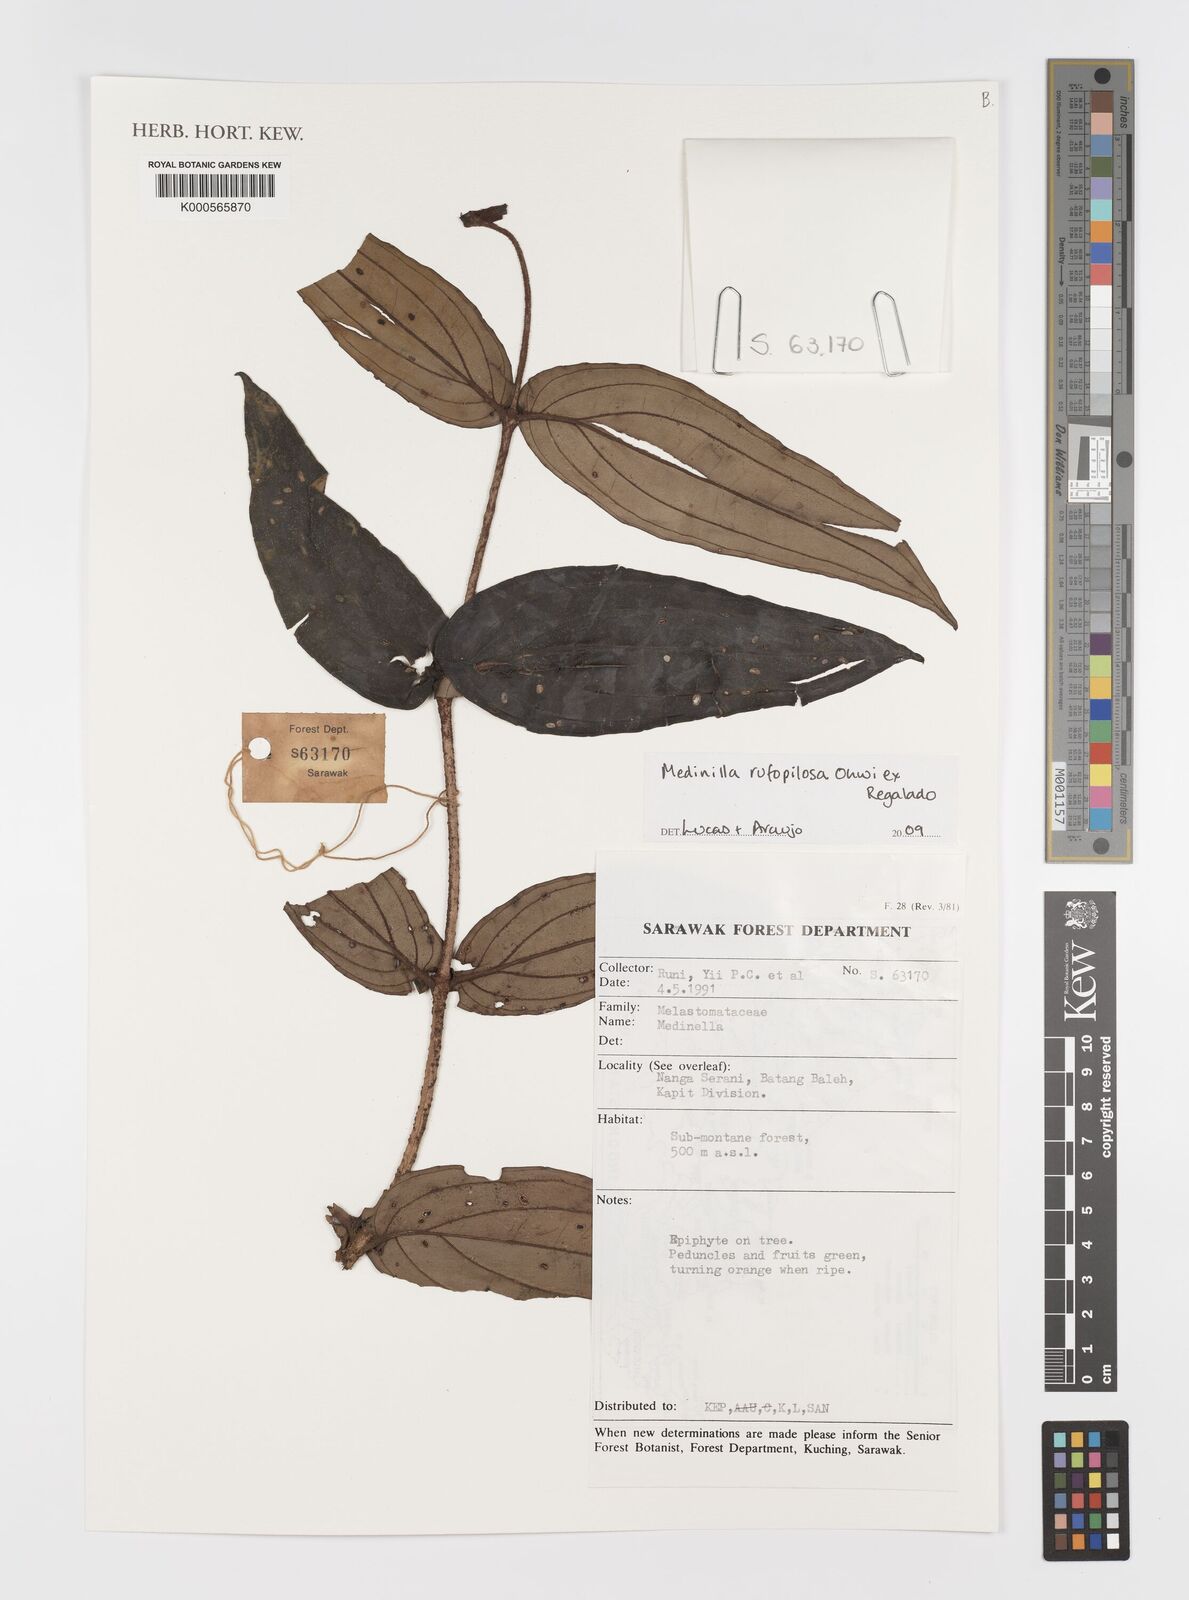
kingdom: Plantae
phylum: Tracheophyta
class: Magnoliopsida
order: Myrtales
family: Melastomataceae
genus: Medinilla
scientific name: Medinilla rufopilosa
